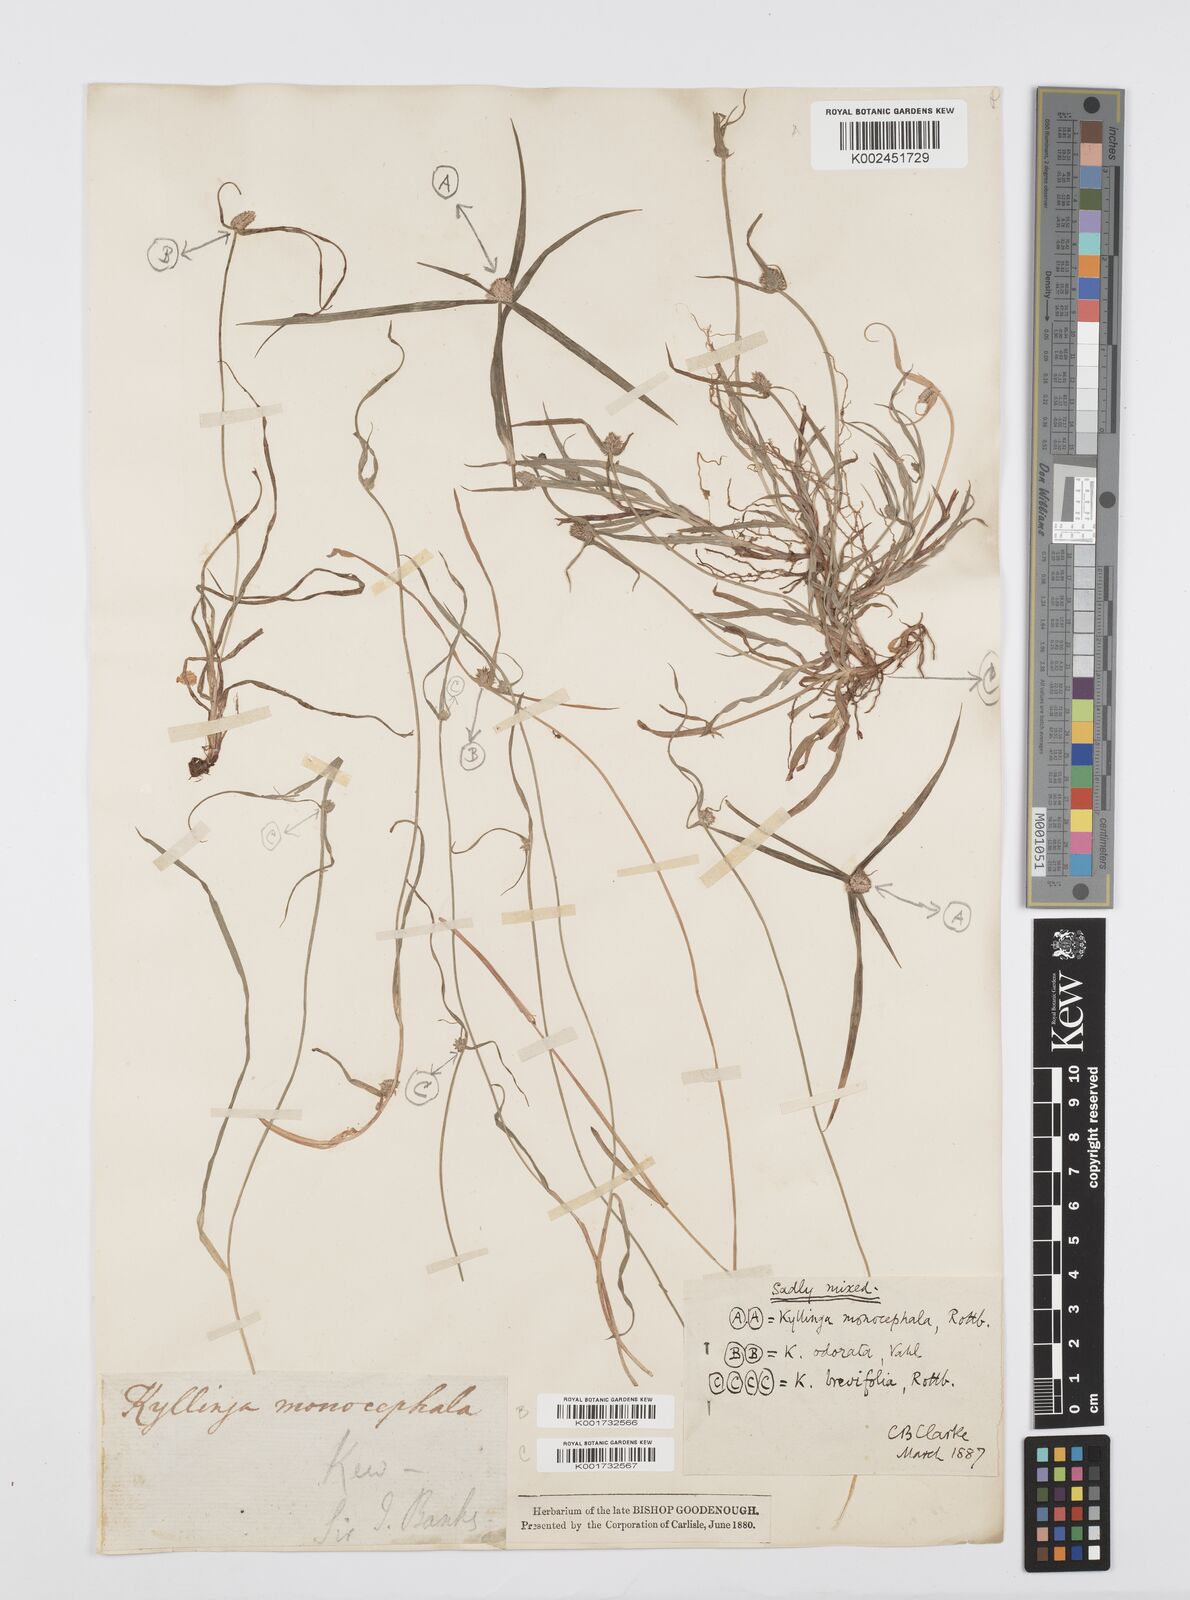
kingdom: Plantae
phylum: Tracheophyta
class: Liliopsida
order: Poales
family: Cyperaceae
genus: Cyperus
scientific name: Cyperus brevifolius
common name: Globe kyllinga
